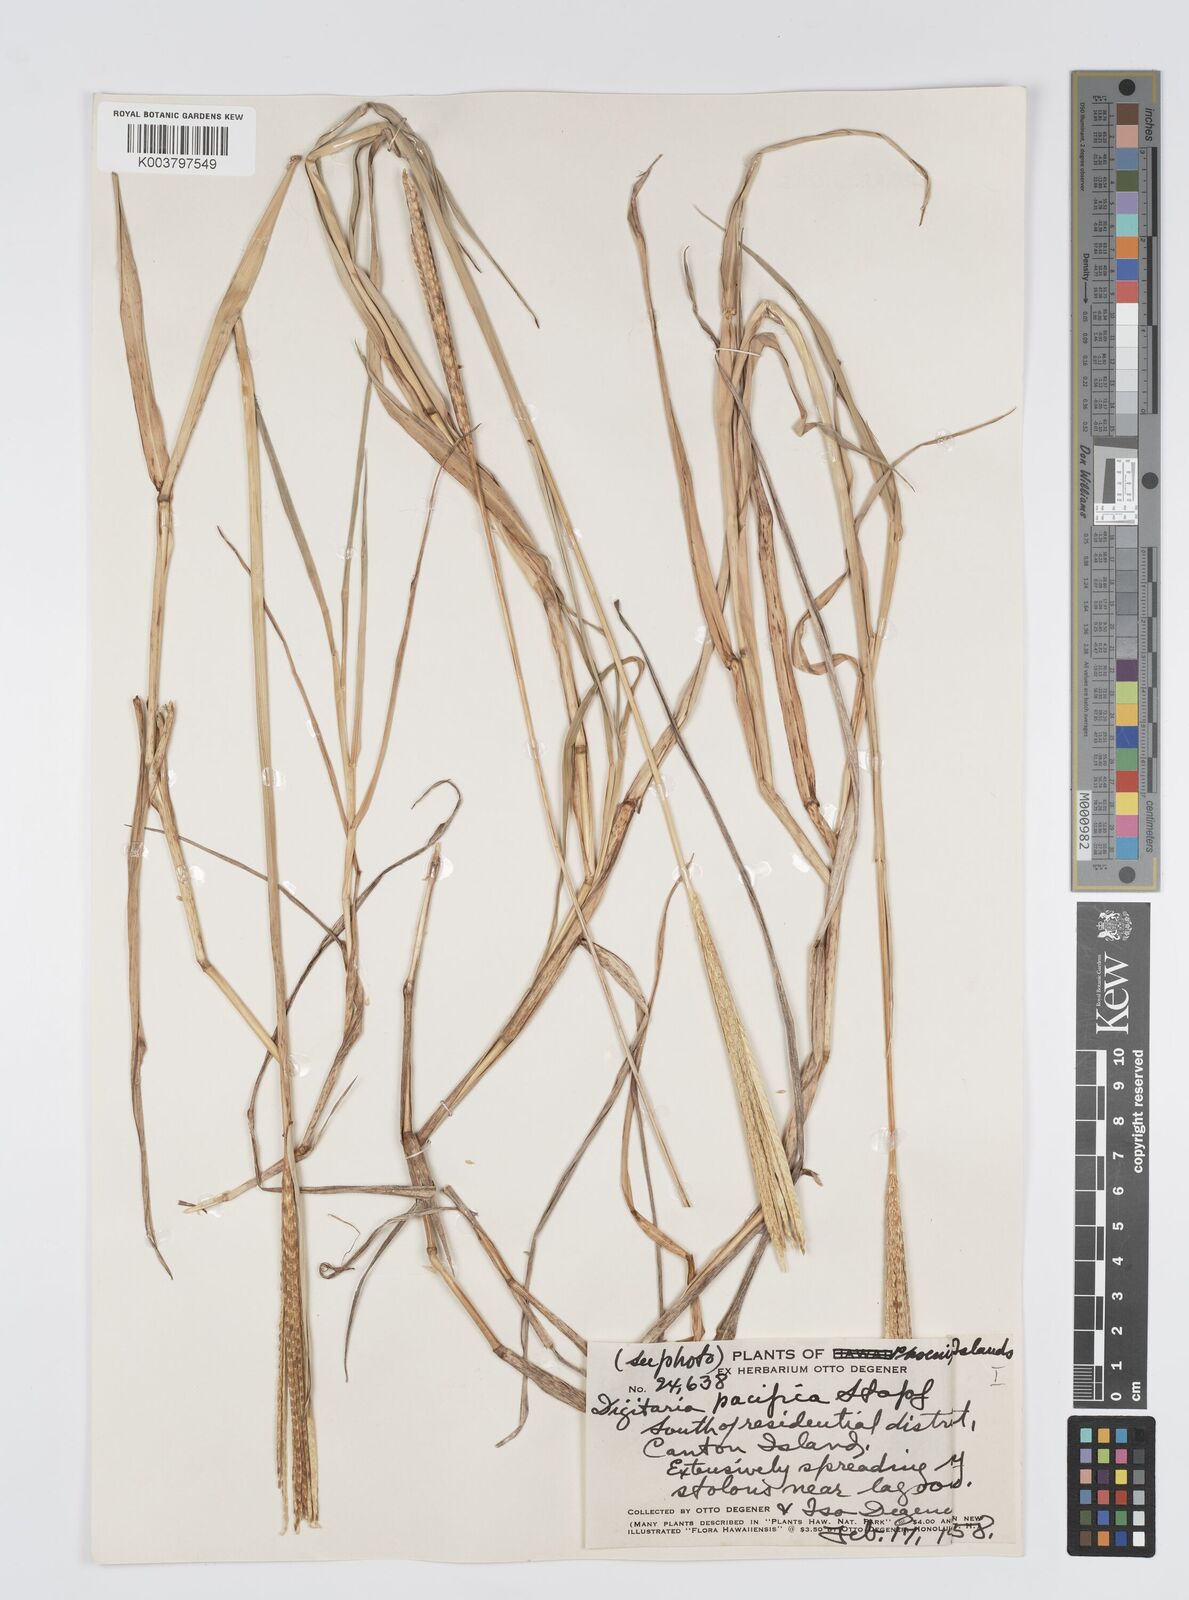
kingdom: Plantae
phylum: Tracheophyta
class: Liliopsida
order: Poales
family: Poaceae
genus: Digitaria
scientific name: Digitaria stenotaphrodes
